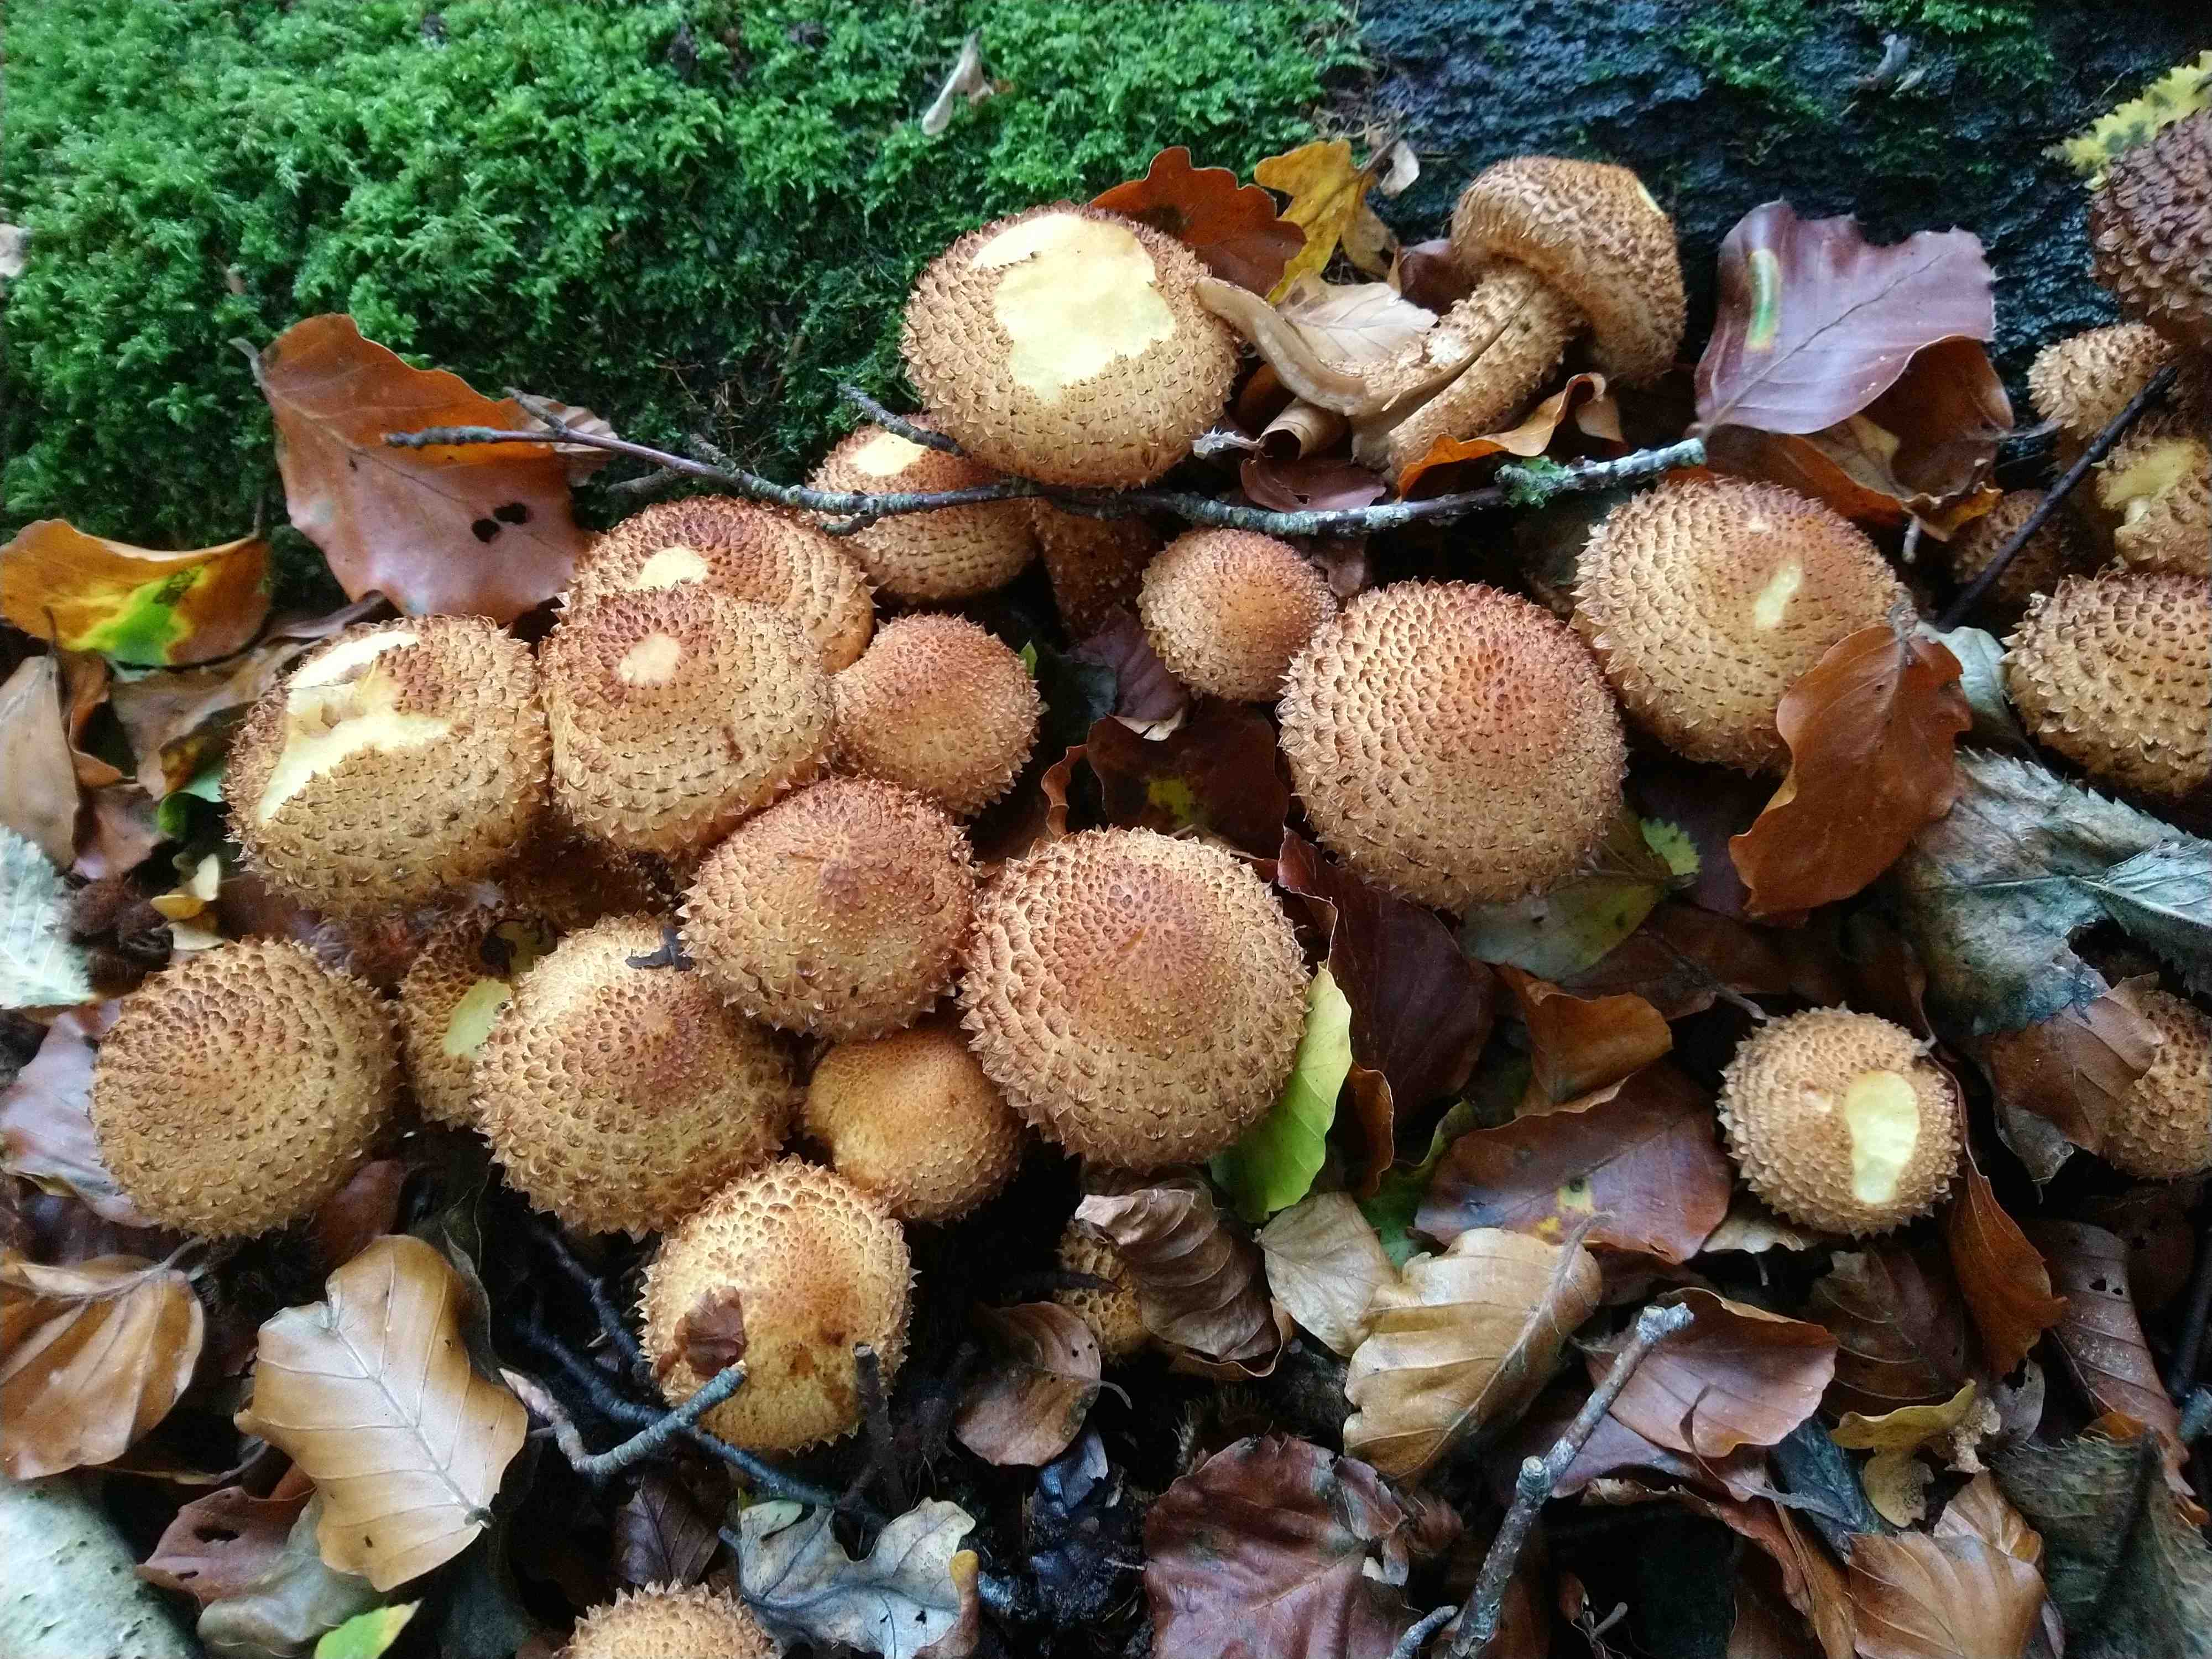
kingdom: Fungi
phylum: Basidiomycota
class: Agaricomycetes
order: Agaricales
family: Strophariaceae
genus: Pholiota
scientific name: Pholiota squarrosa
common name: krumskællet skælhat
